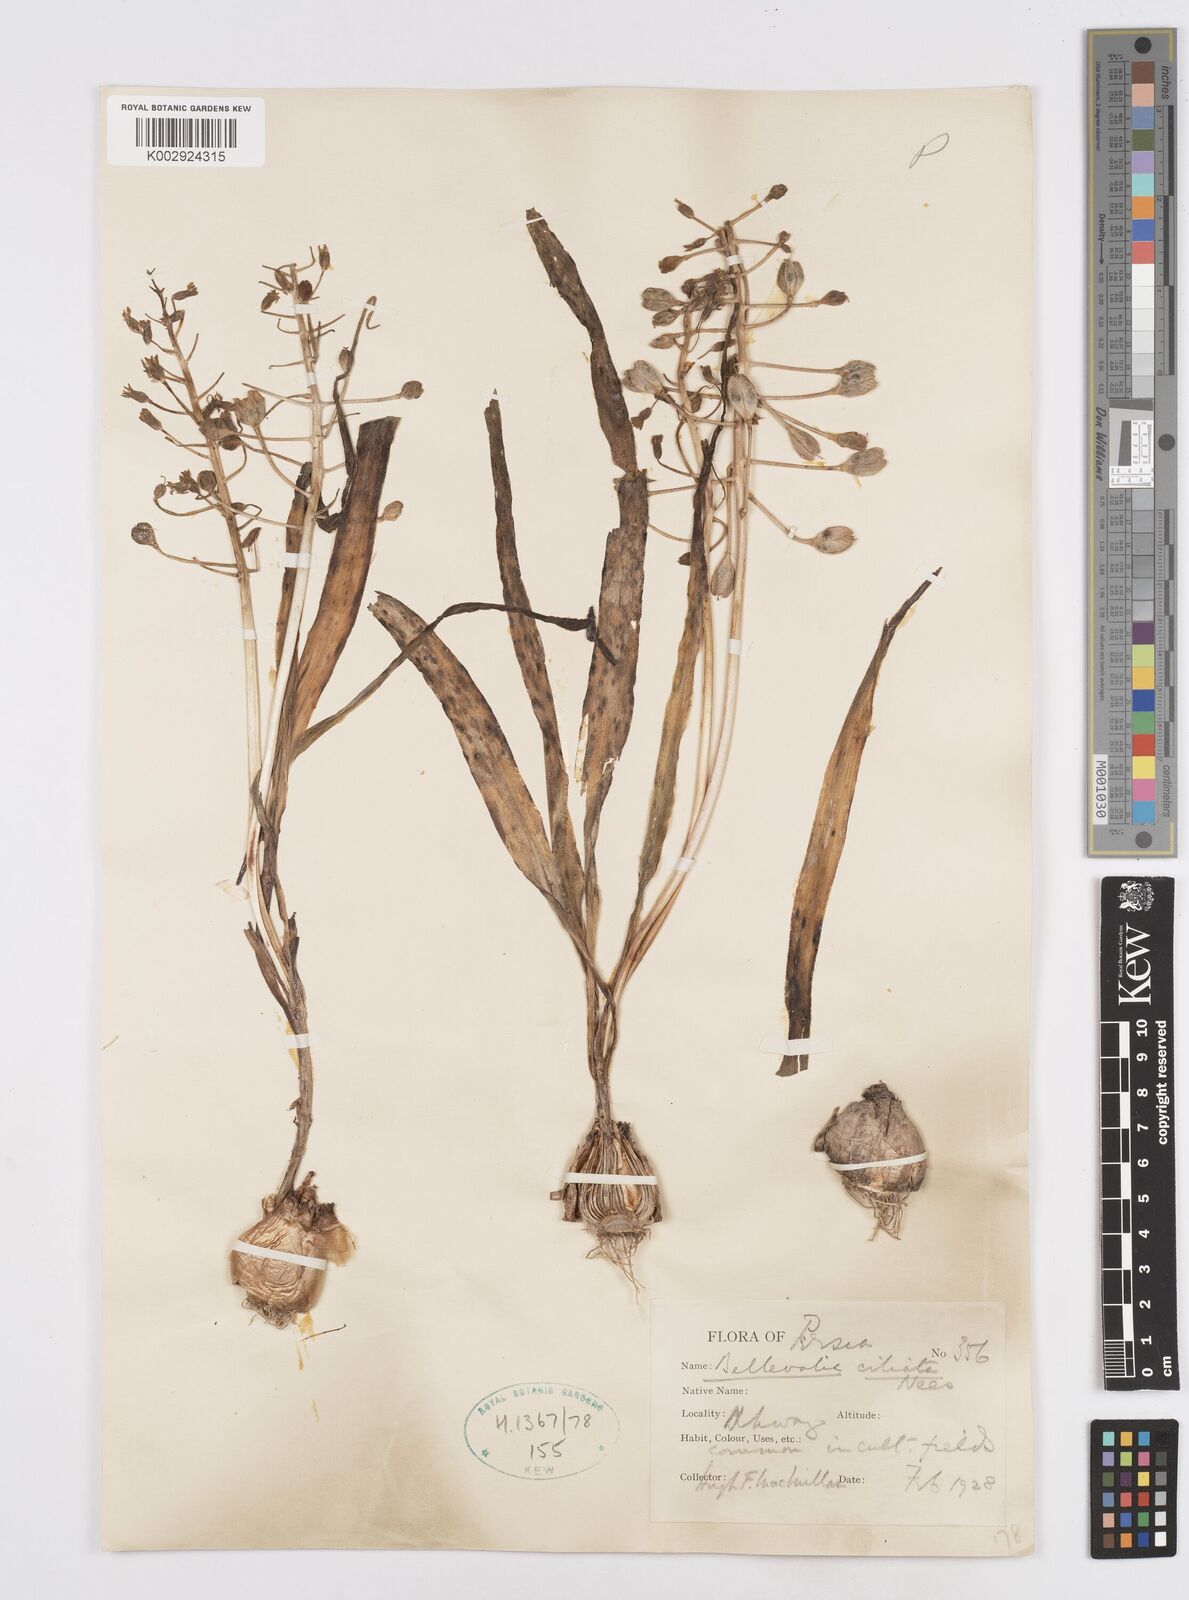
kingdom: Plantae
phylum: Tracheophyta
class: Liliopsida
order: Asparagales
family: Asparagaceae
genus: Bellevalia
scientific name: Bellevalia ciliata
